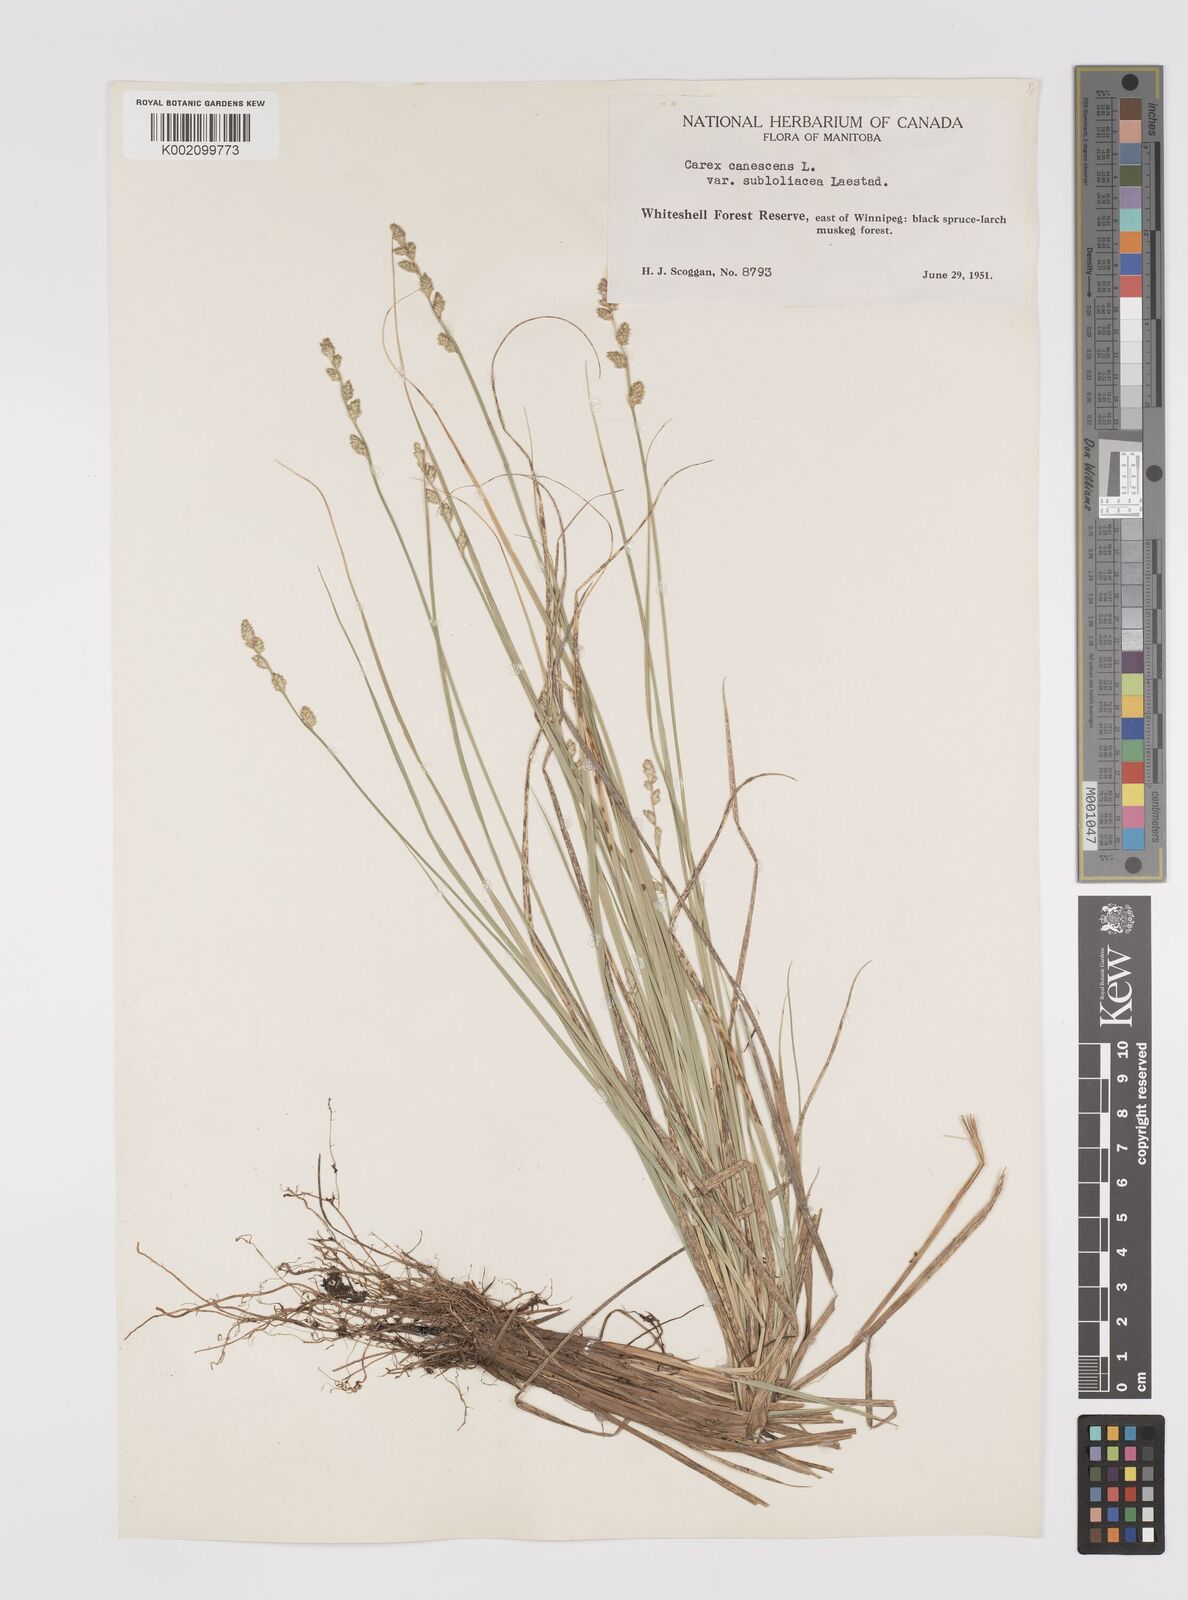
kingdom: Plantae
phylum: Tracheophyta
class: Liliopsida
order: Poales
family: Cyperaceae
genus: Carex
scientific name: Carex curta
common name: White sedge
